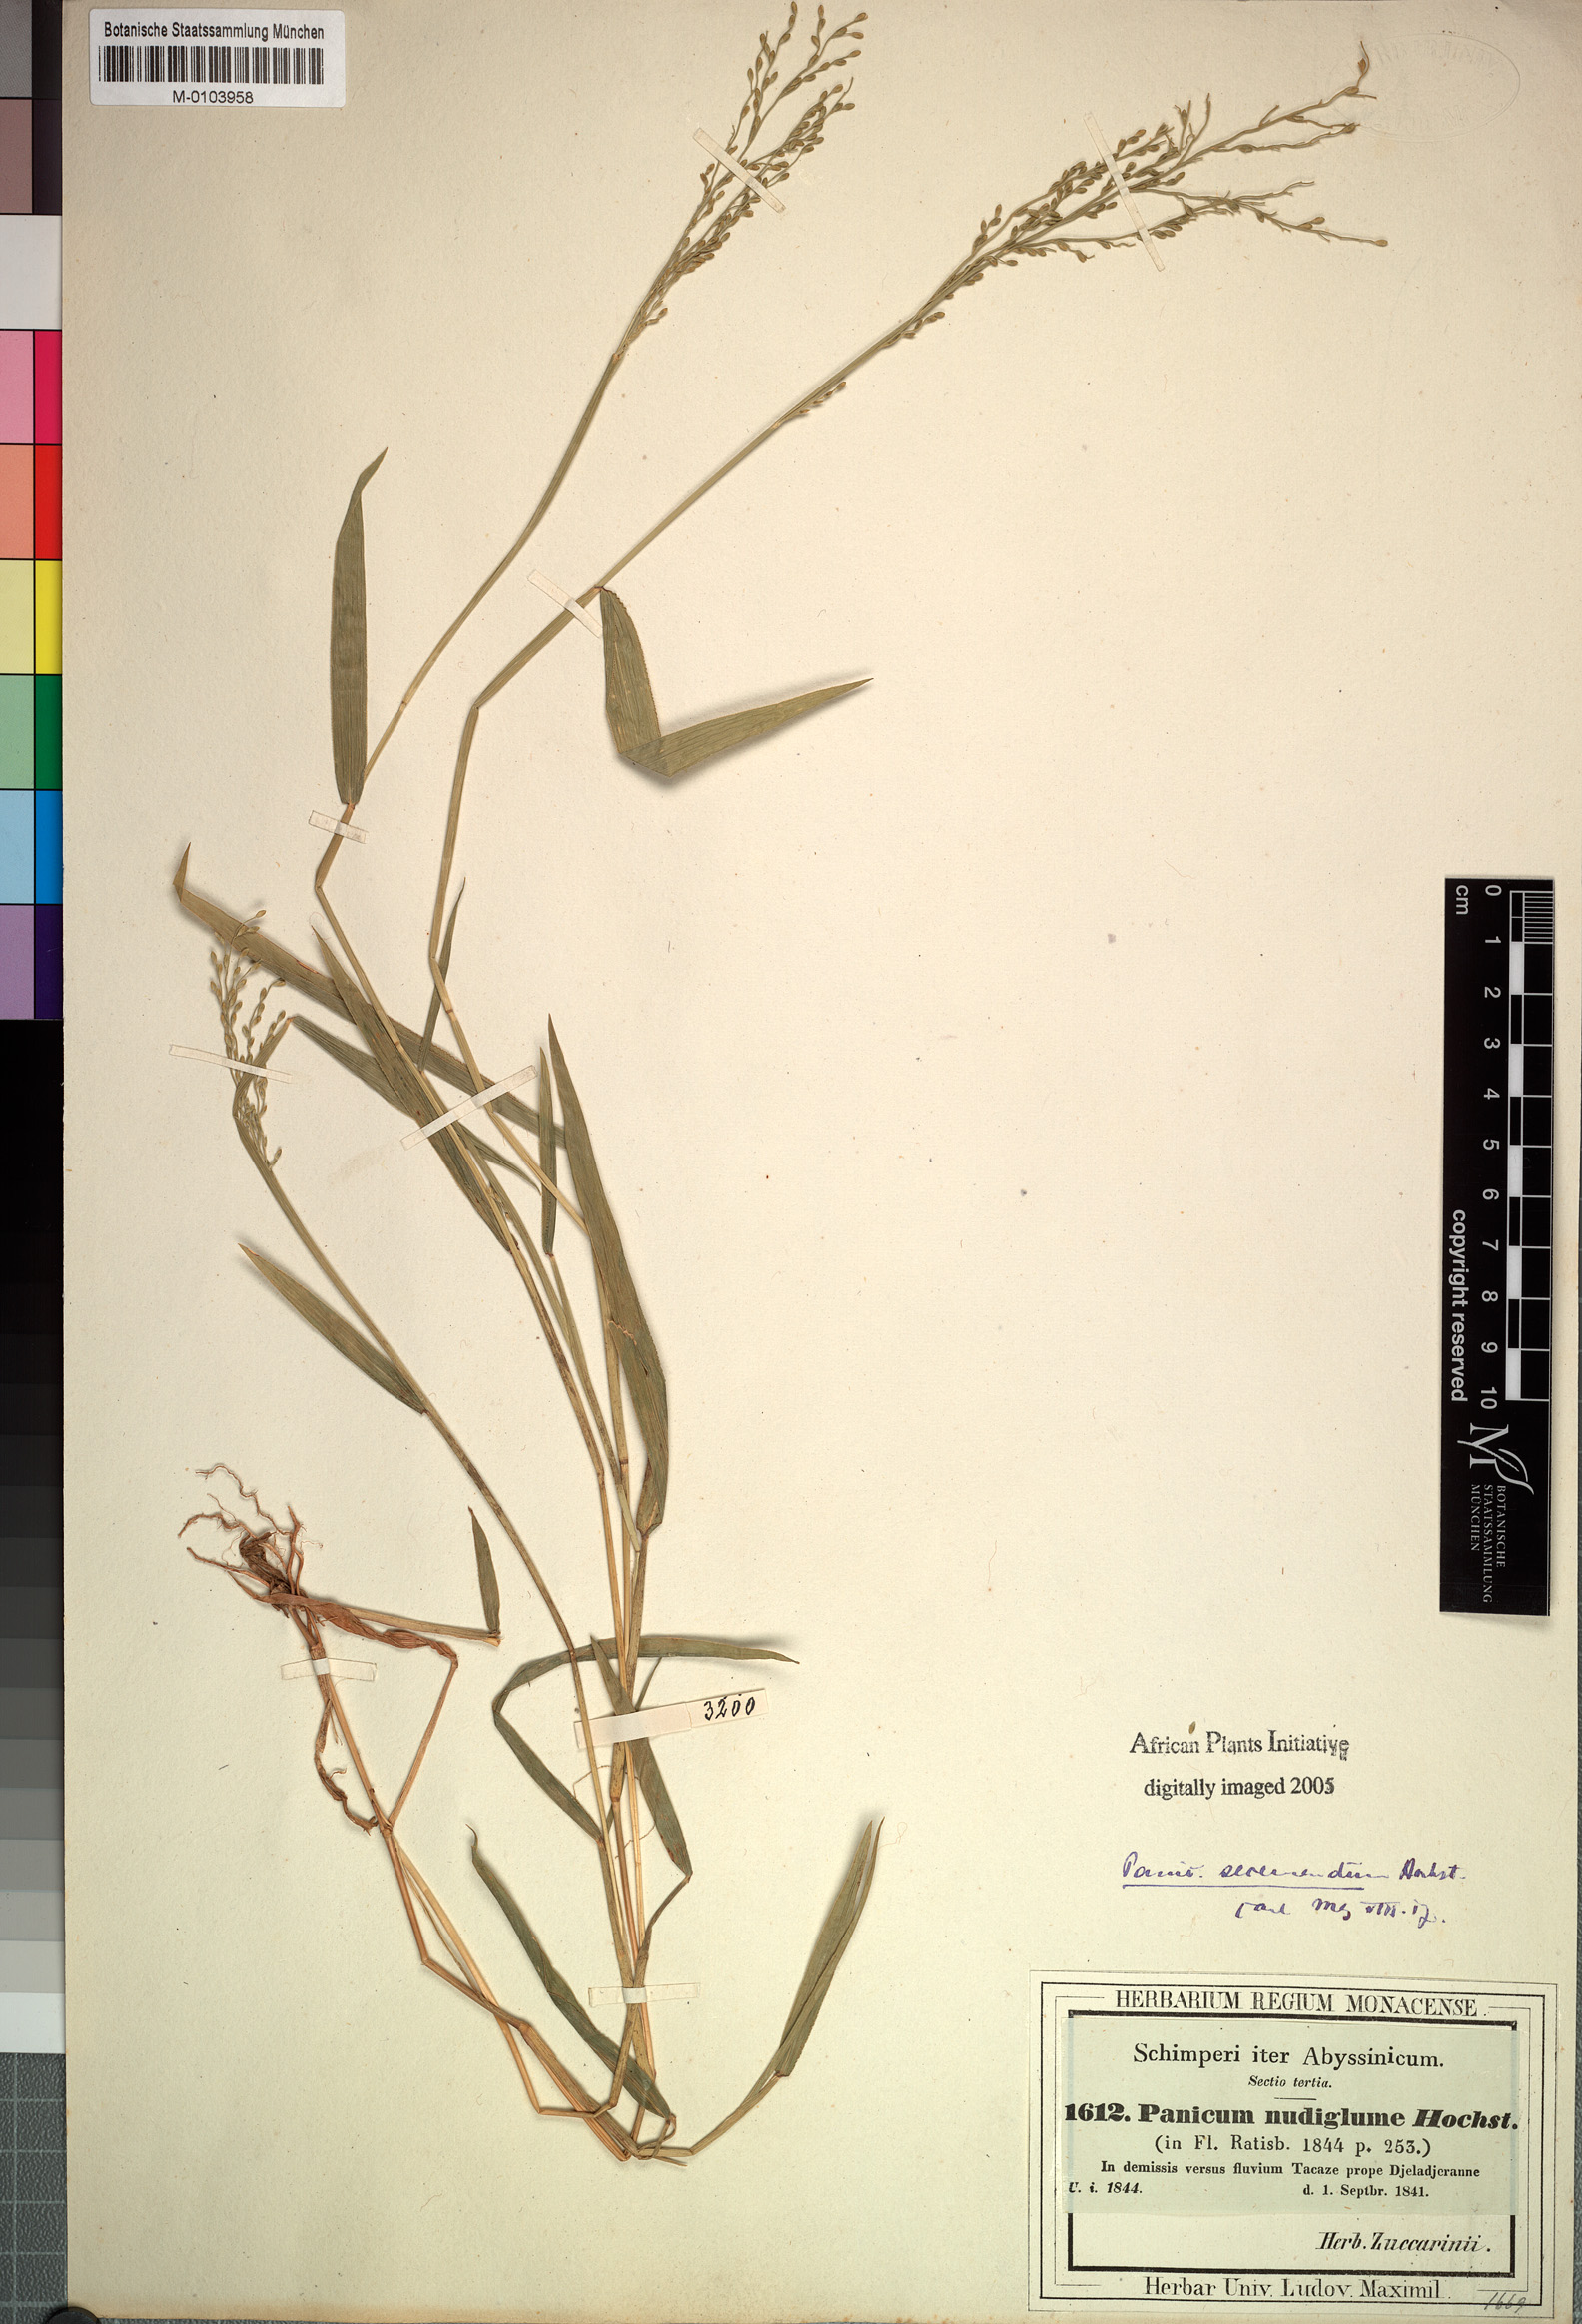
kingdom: Plantae
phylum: Tracheophyta
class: Liliopsida
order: Poales
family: Poaceae
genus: Urochloa
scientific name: Urochloa comata
